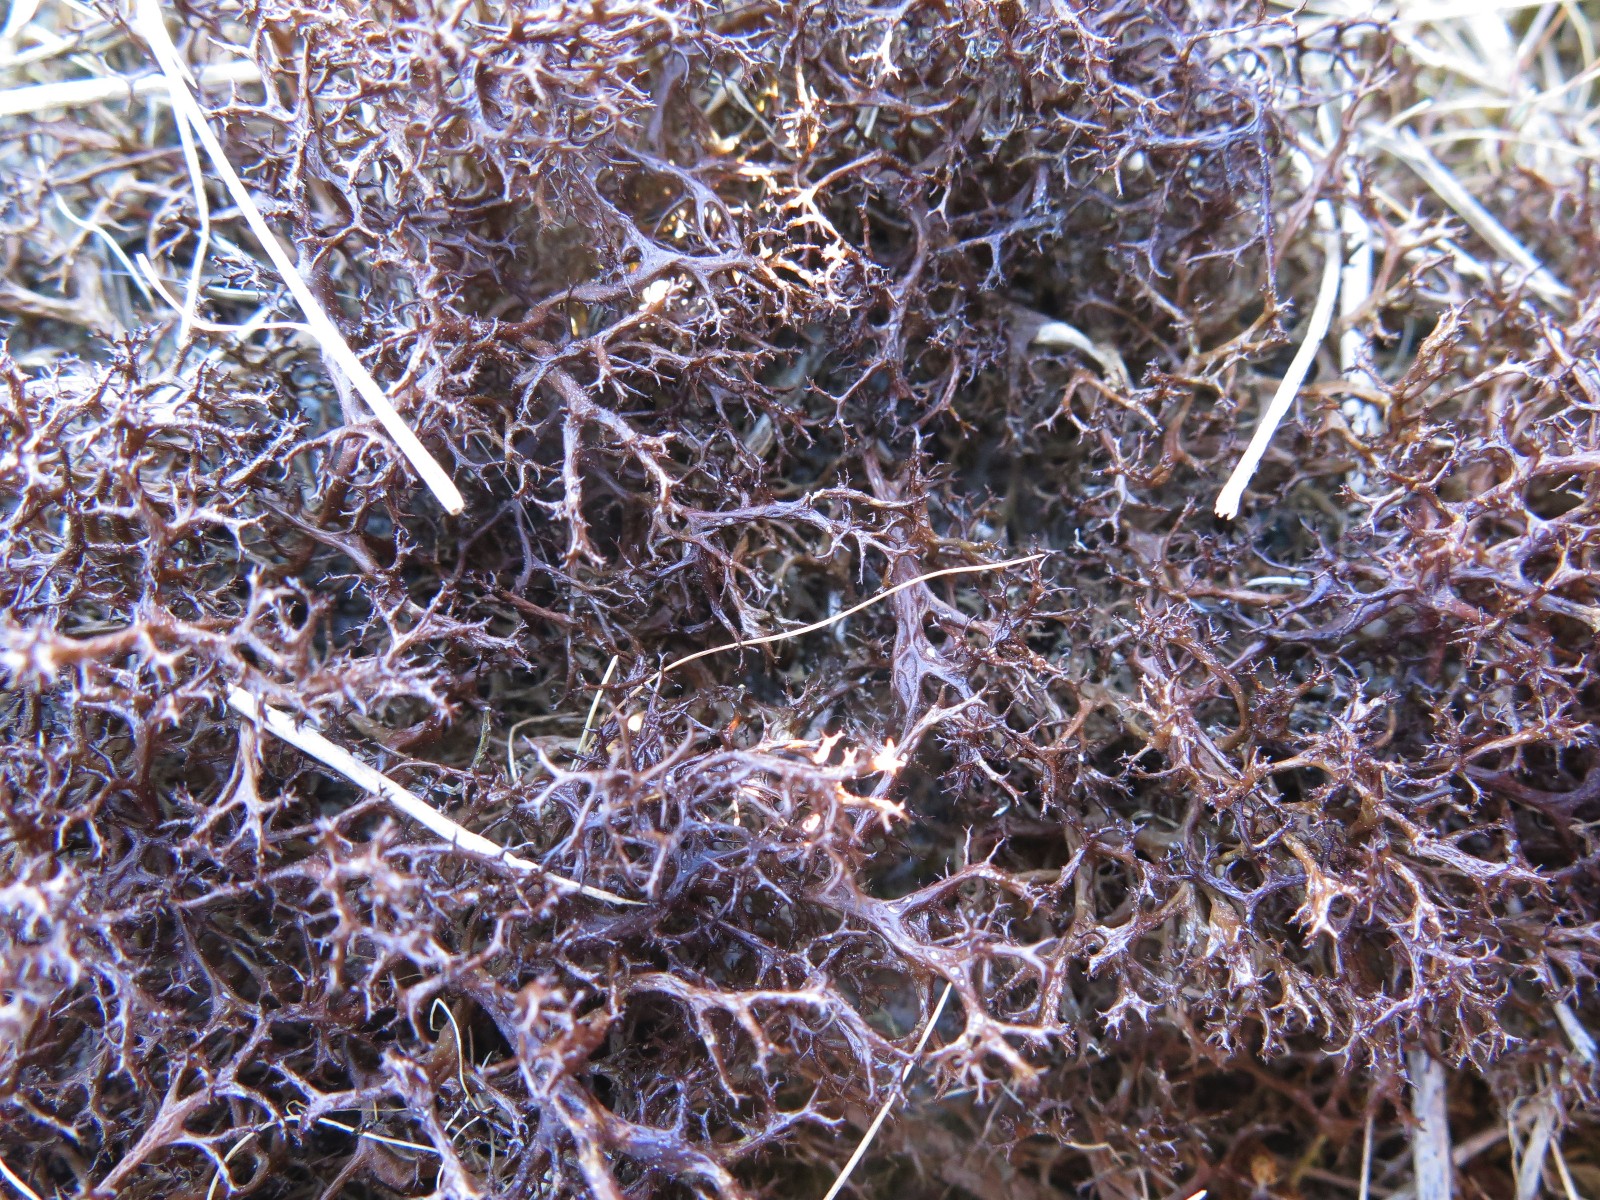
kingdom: Fungi
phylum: Ascomycota
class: Lecanoromycetes
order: Lecanorales
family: Parmeliaceae
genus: Cetraria
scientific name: Cetraria aculeata
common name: grubet tjørnelav
